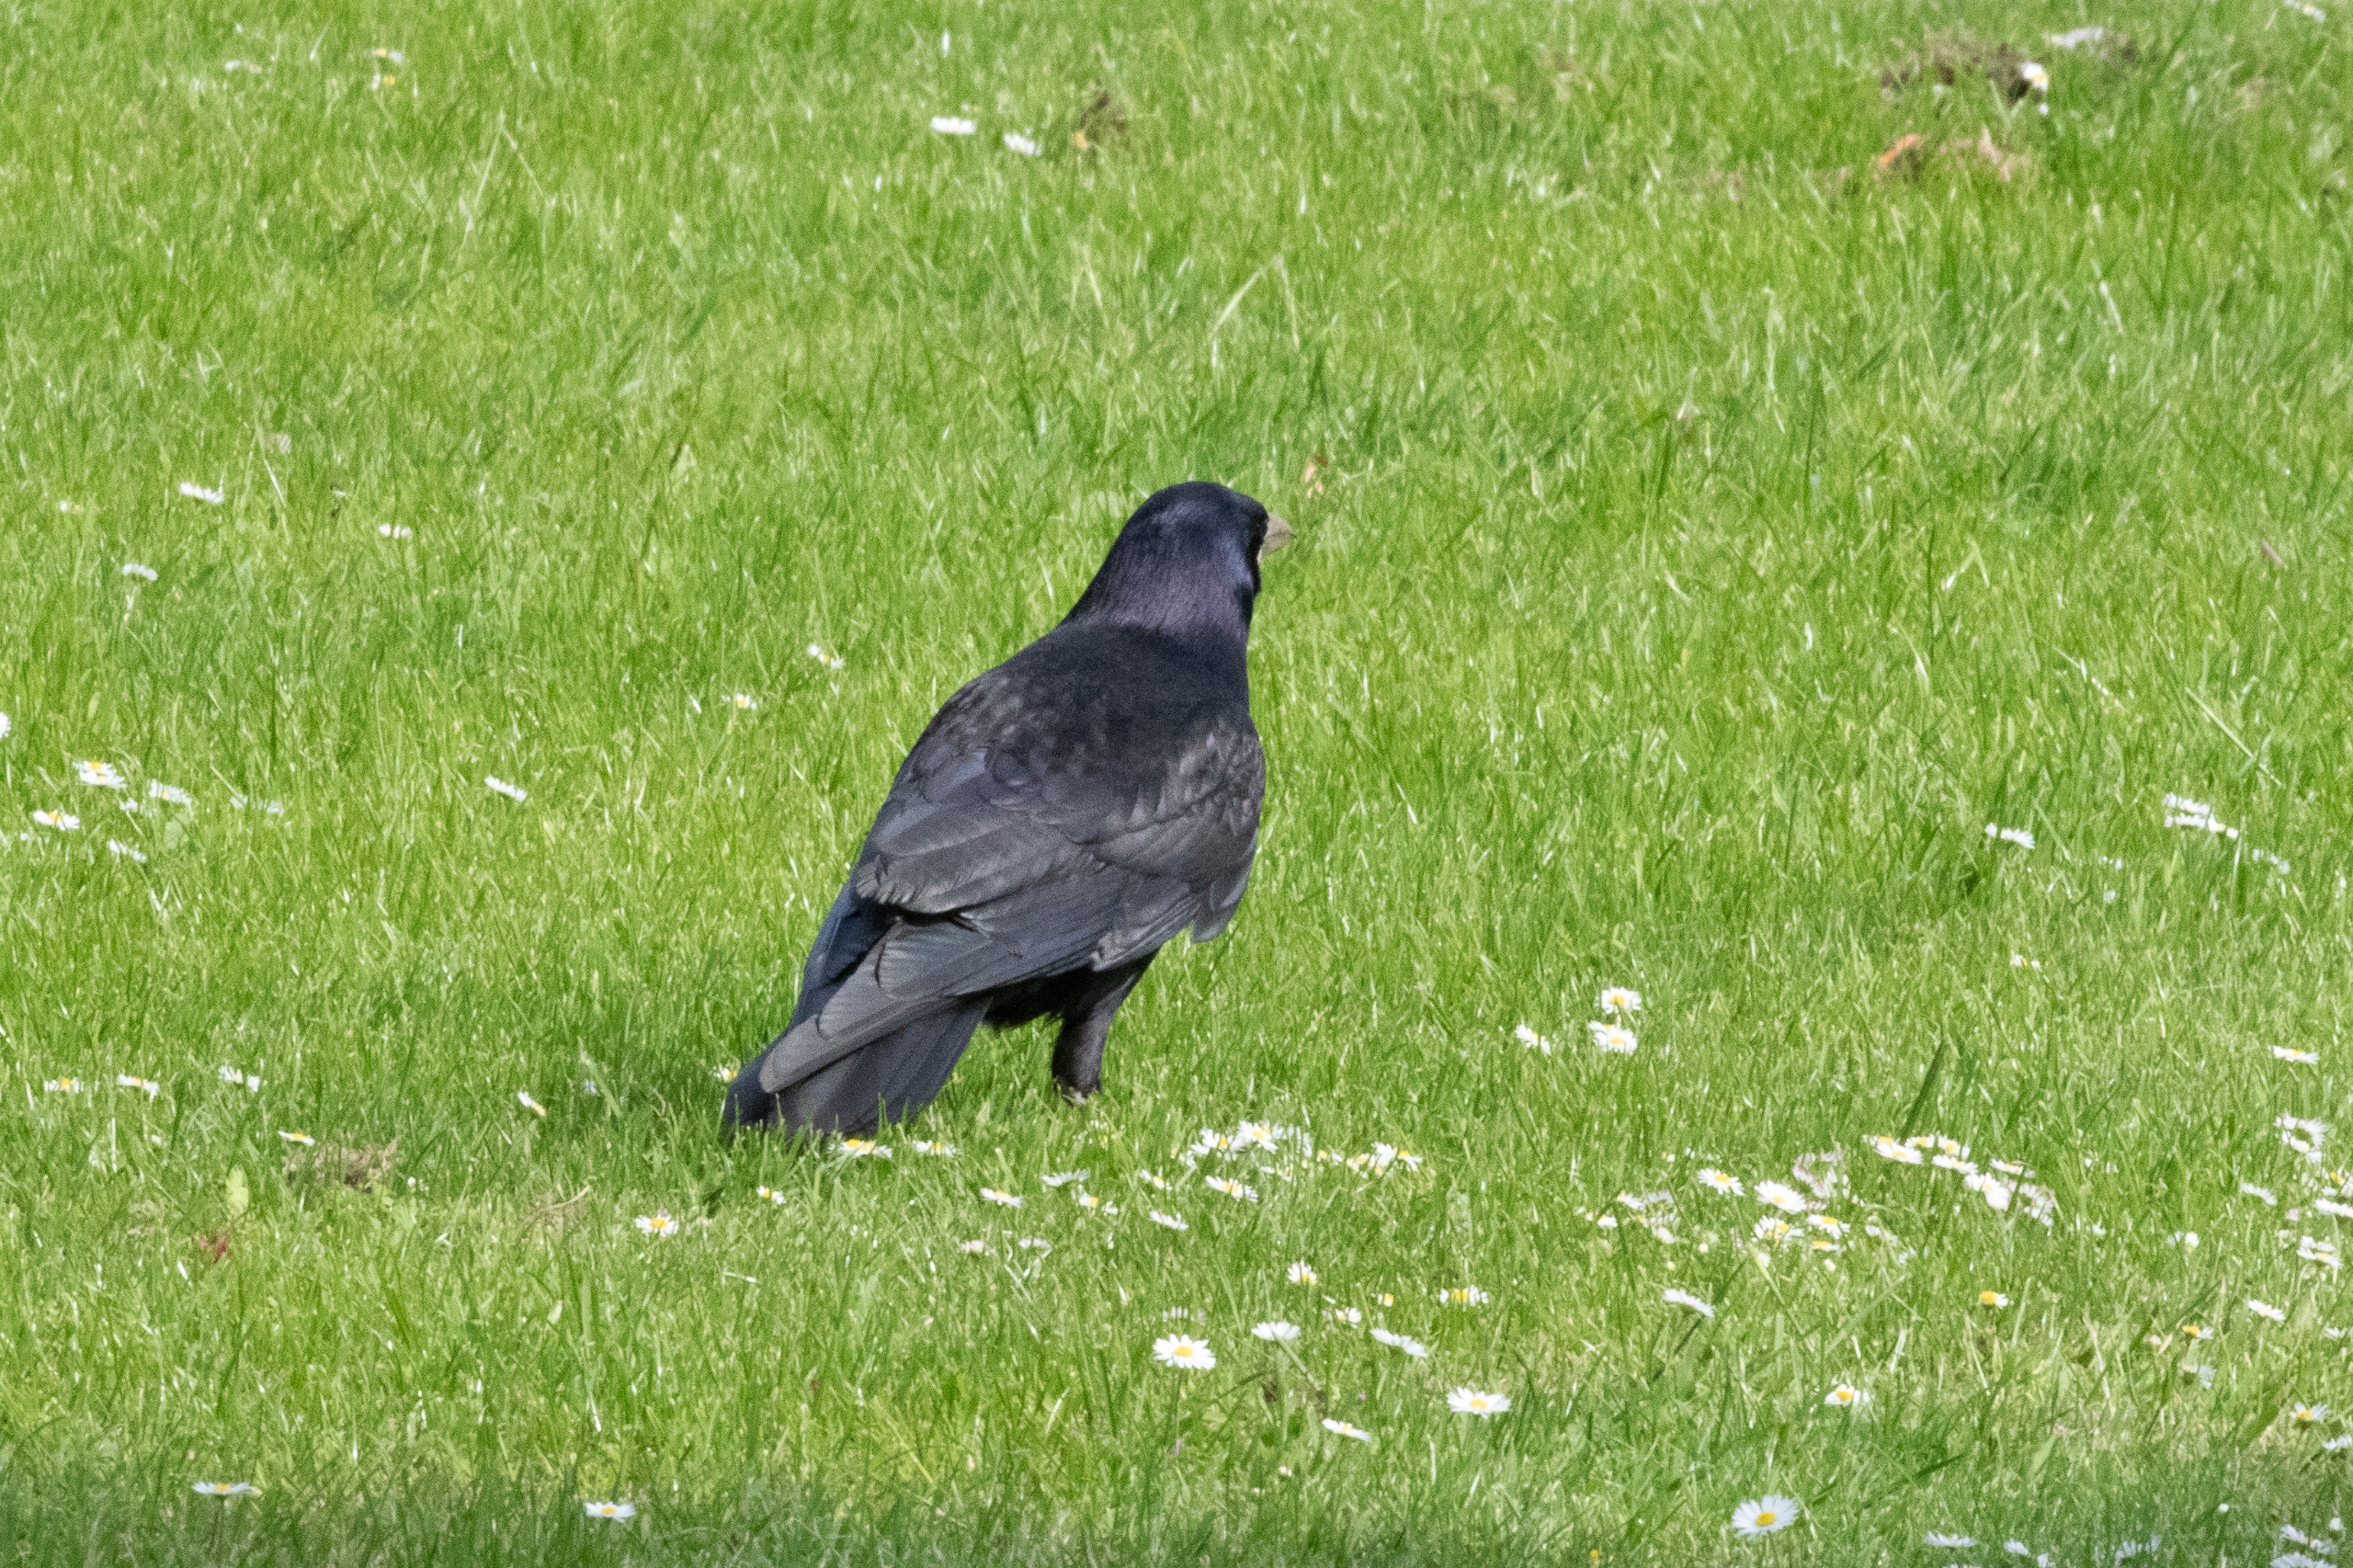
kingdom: Animalia
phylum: Chordata
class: Aves
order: Passeriformes
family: Corvidae
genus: Corvus
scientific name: Corvus frugilegus
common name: Råge
